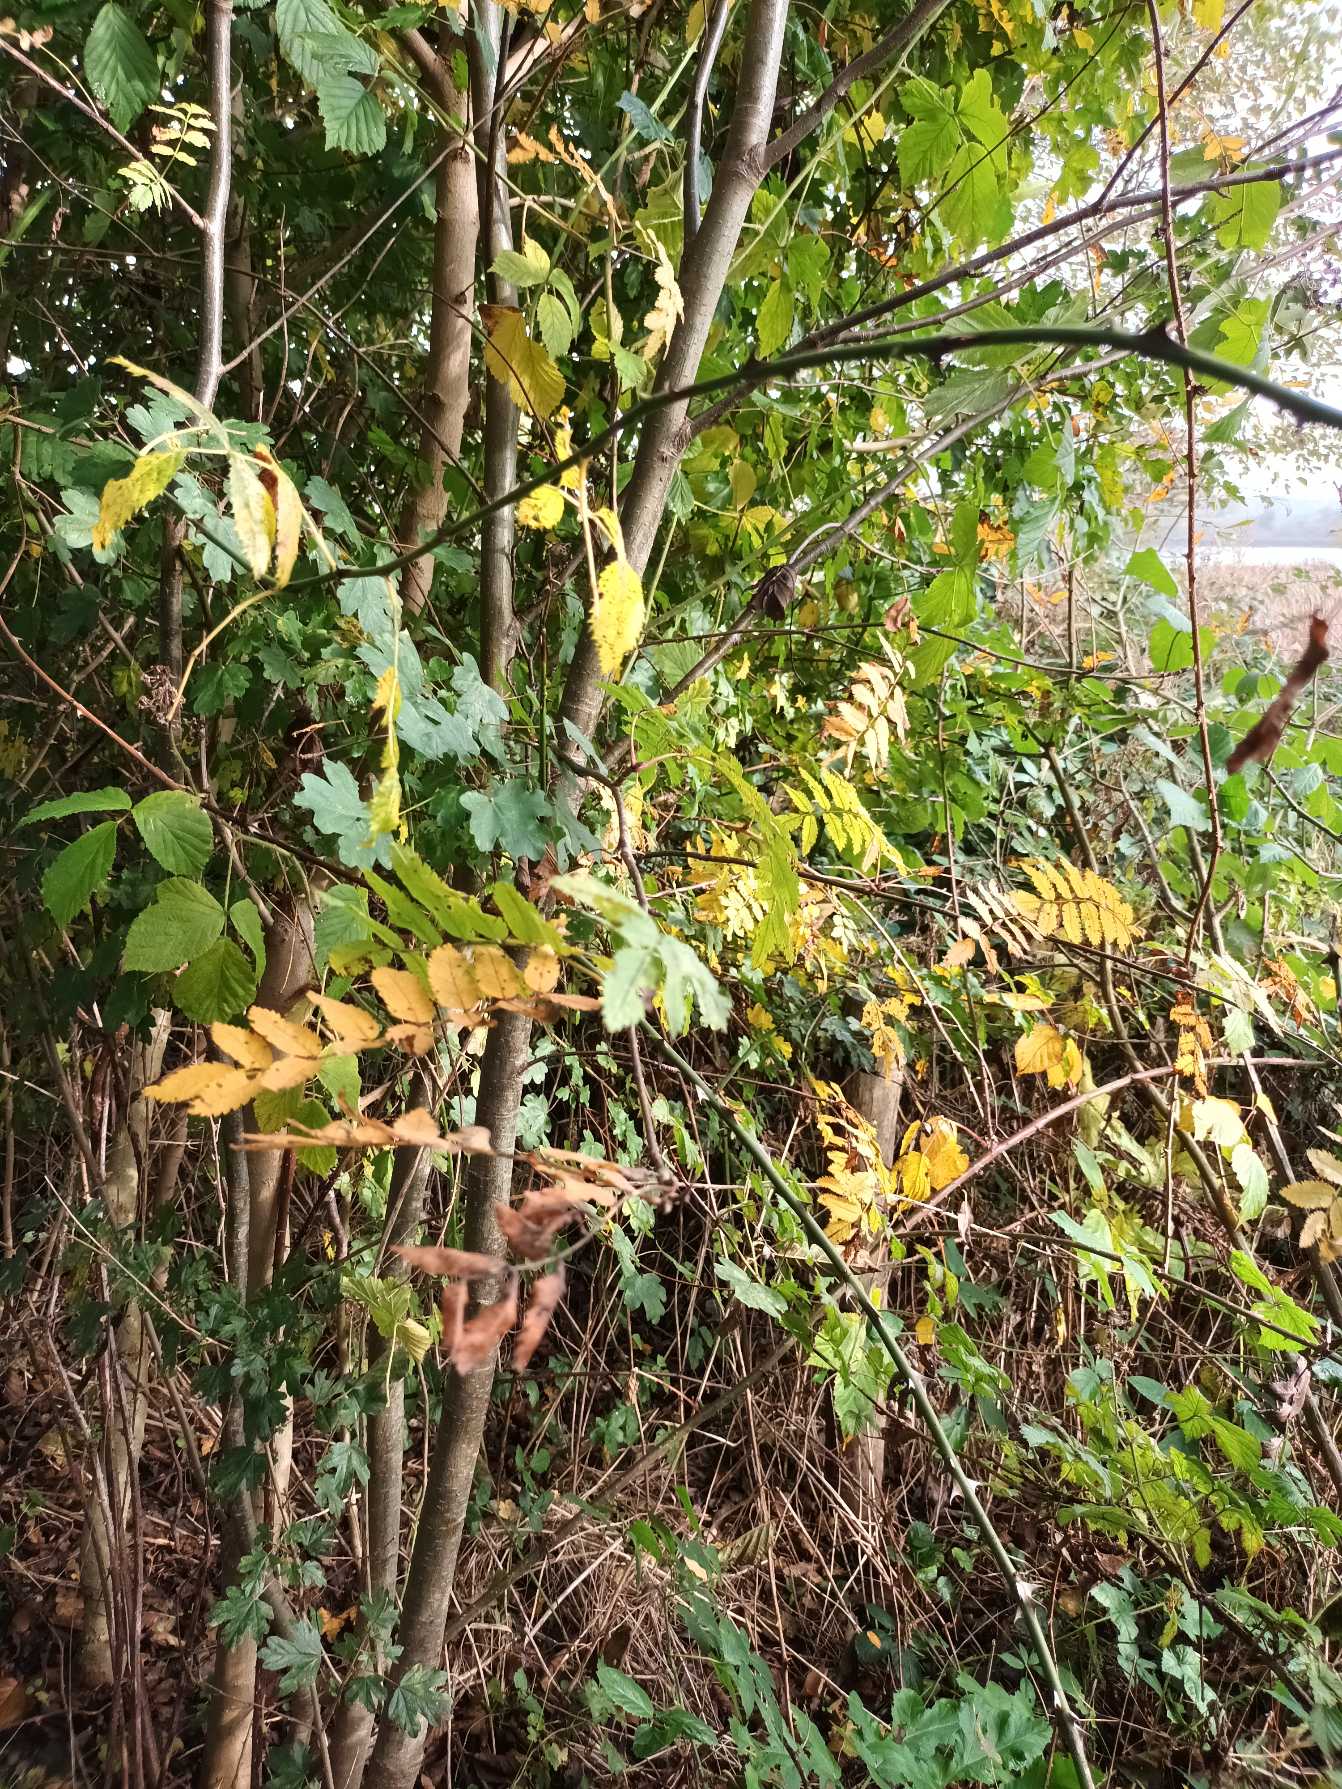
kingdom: Plantae
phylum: Tracheophyta
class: Magnoliopsida
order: Rosales
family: Rosaceae
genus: Sorbus
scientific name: Sorbus aucuparia
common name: Almindelig røn
